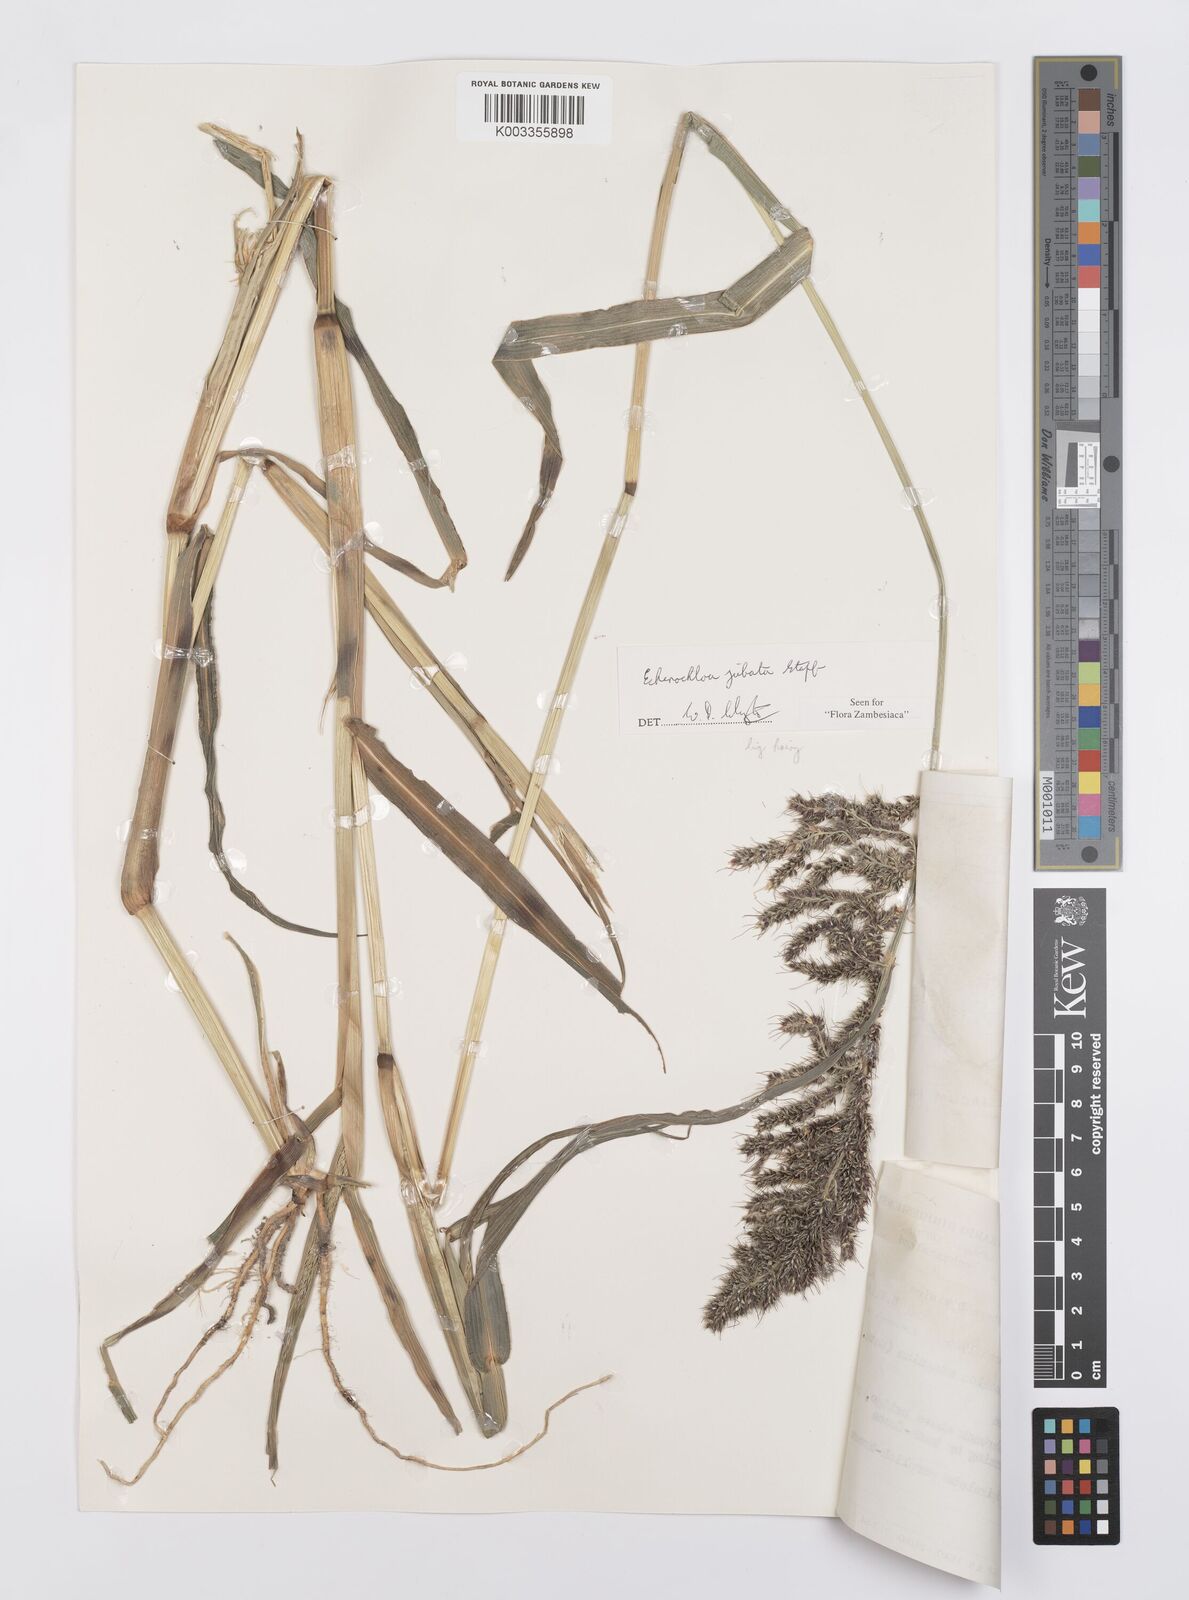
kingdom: Plantae
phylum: Tracheophyta
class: Liliopsida
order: Poales
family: Poaceae
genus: Echinochloa
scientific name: Echinochloa jubata
